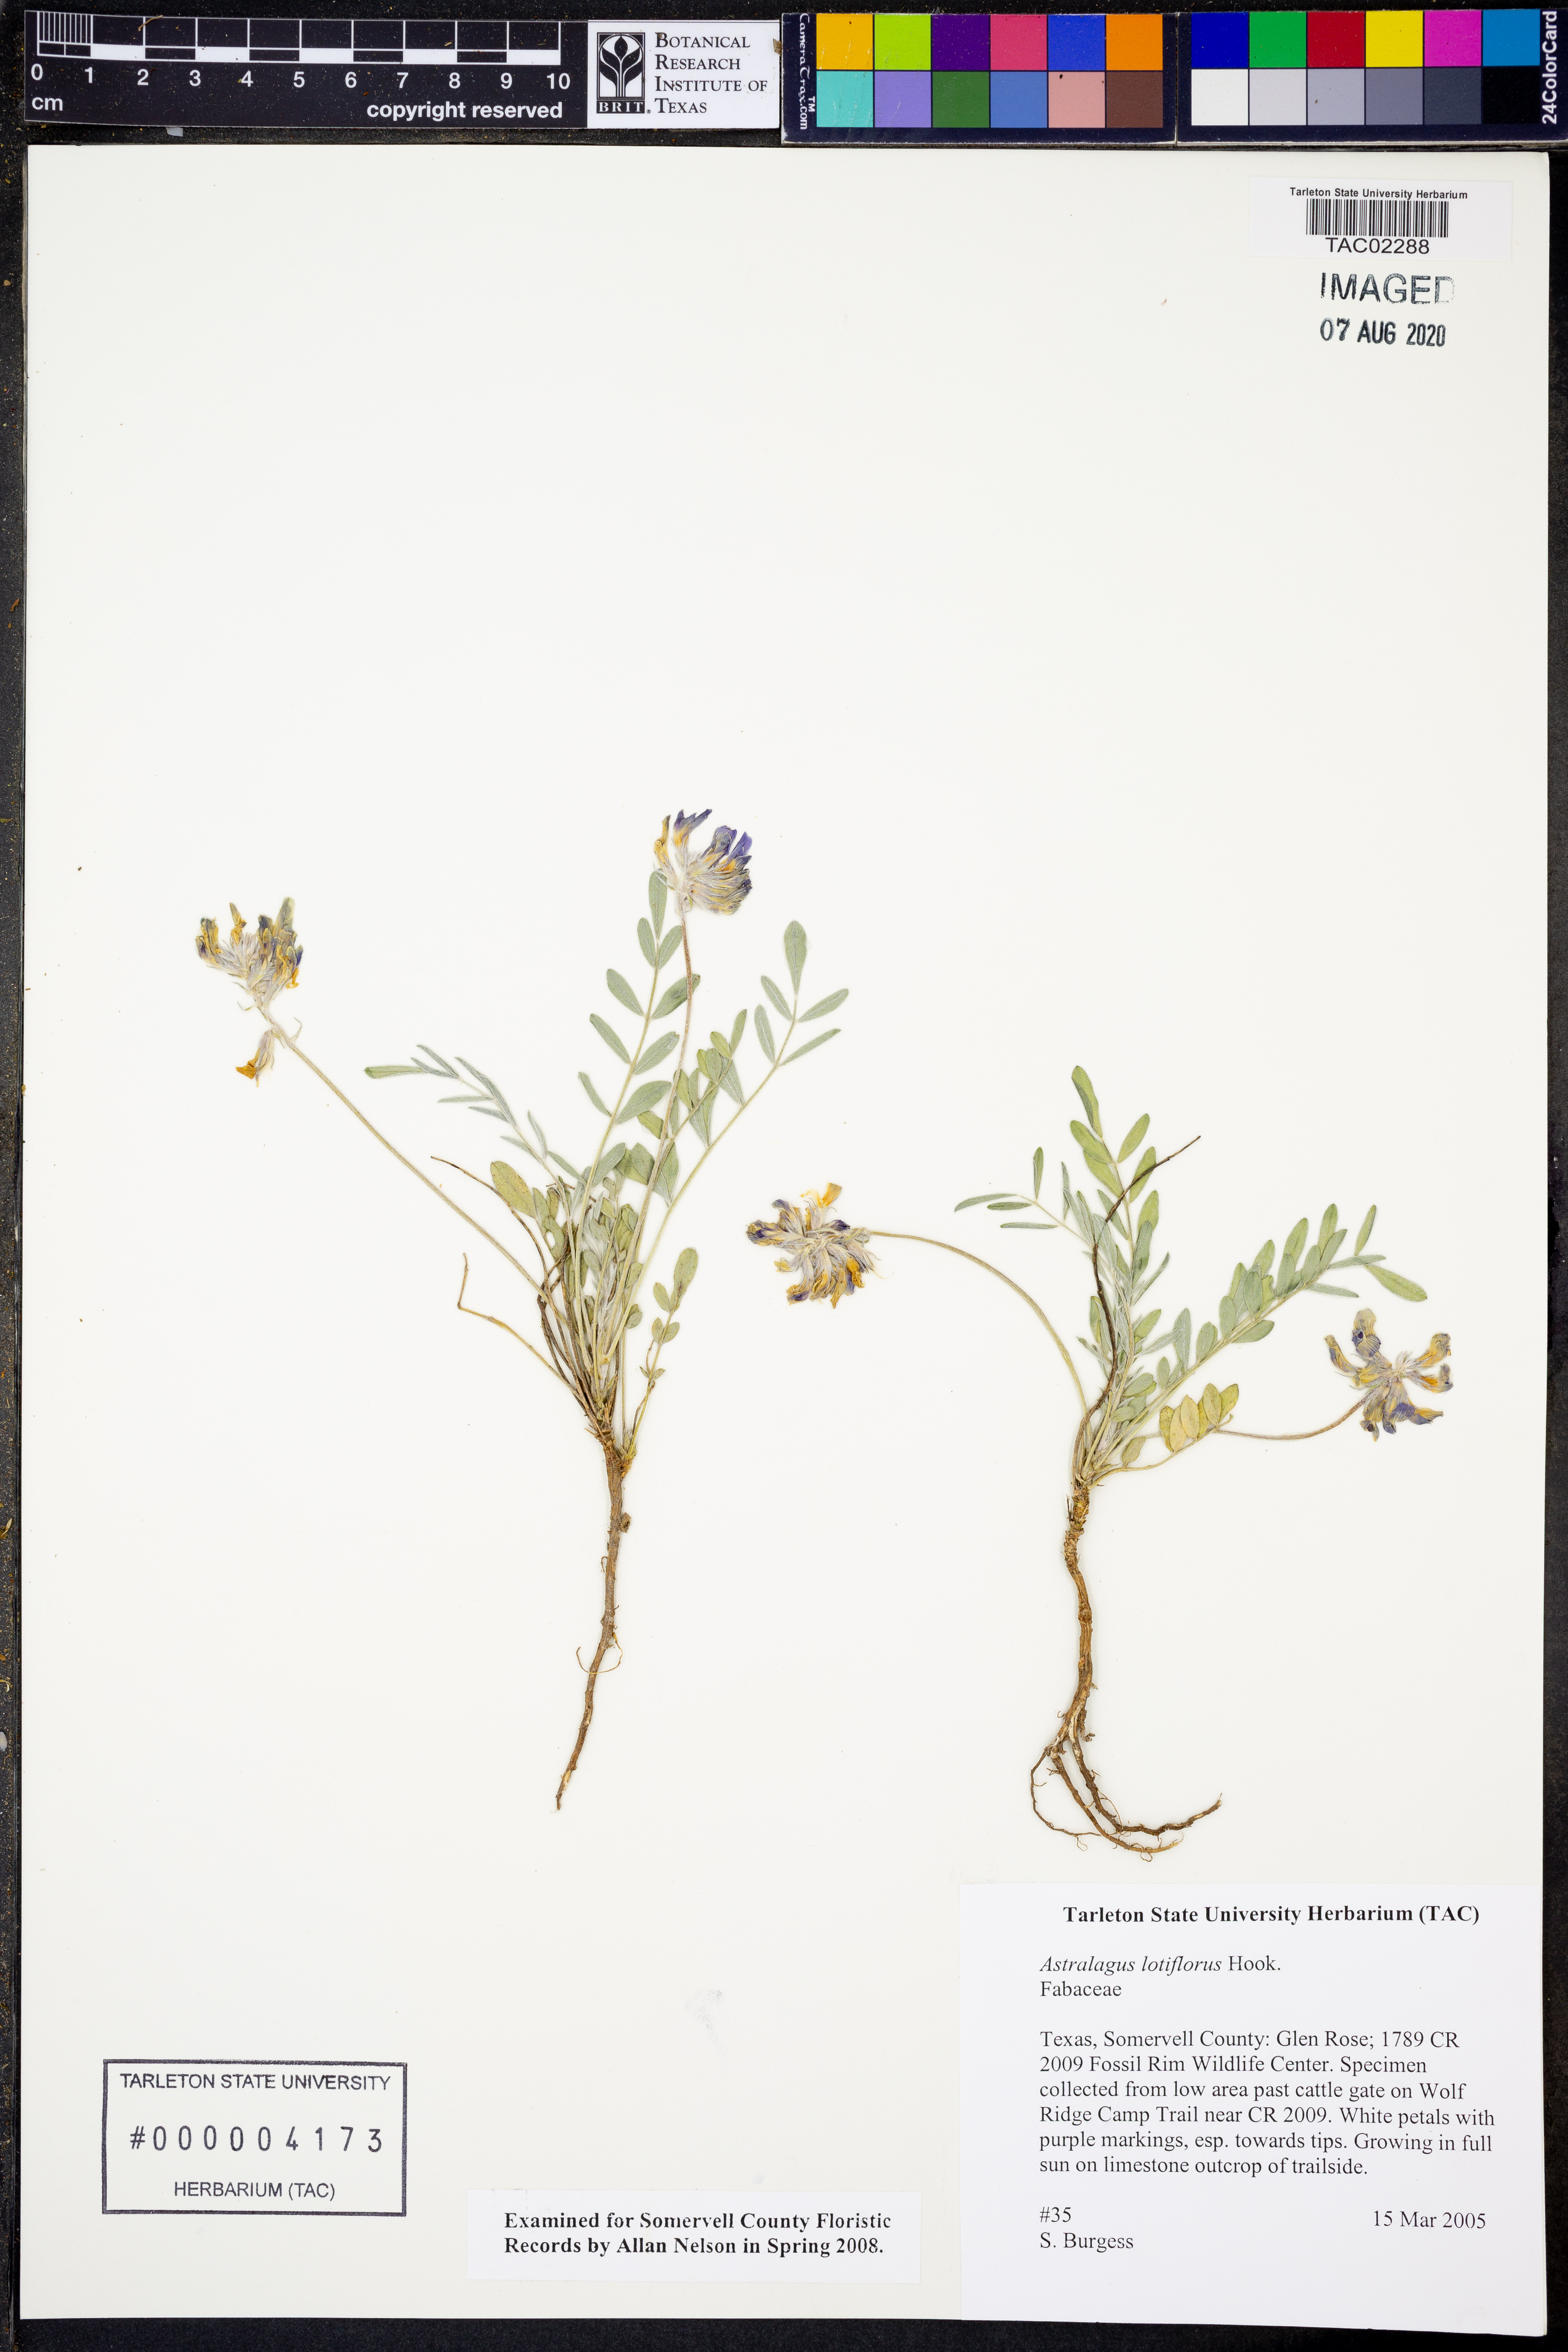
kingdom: Plantae
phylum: Tracheophyta
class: Magnoliopsida
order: Fabales
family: Fabaceae
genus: Astragalus
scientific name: Astragalus lotiflorus
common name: Lotus milk-vetch
